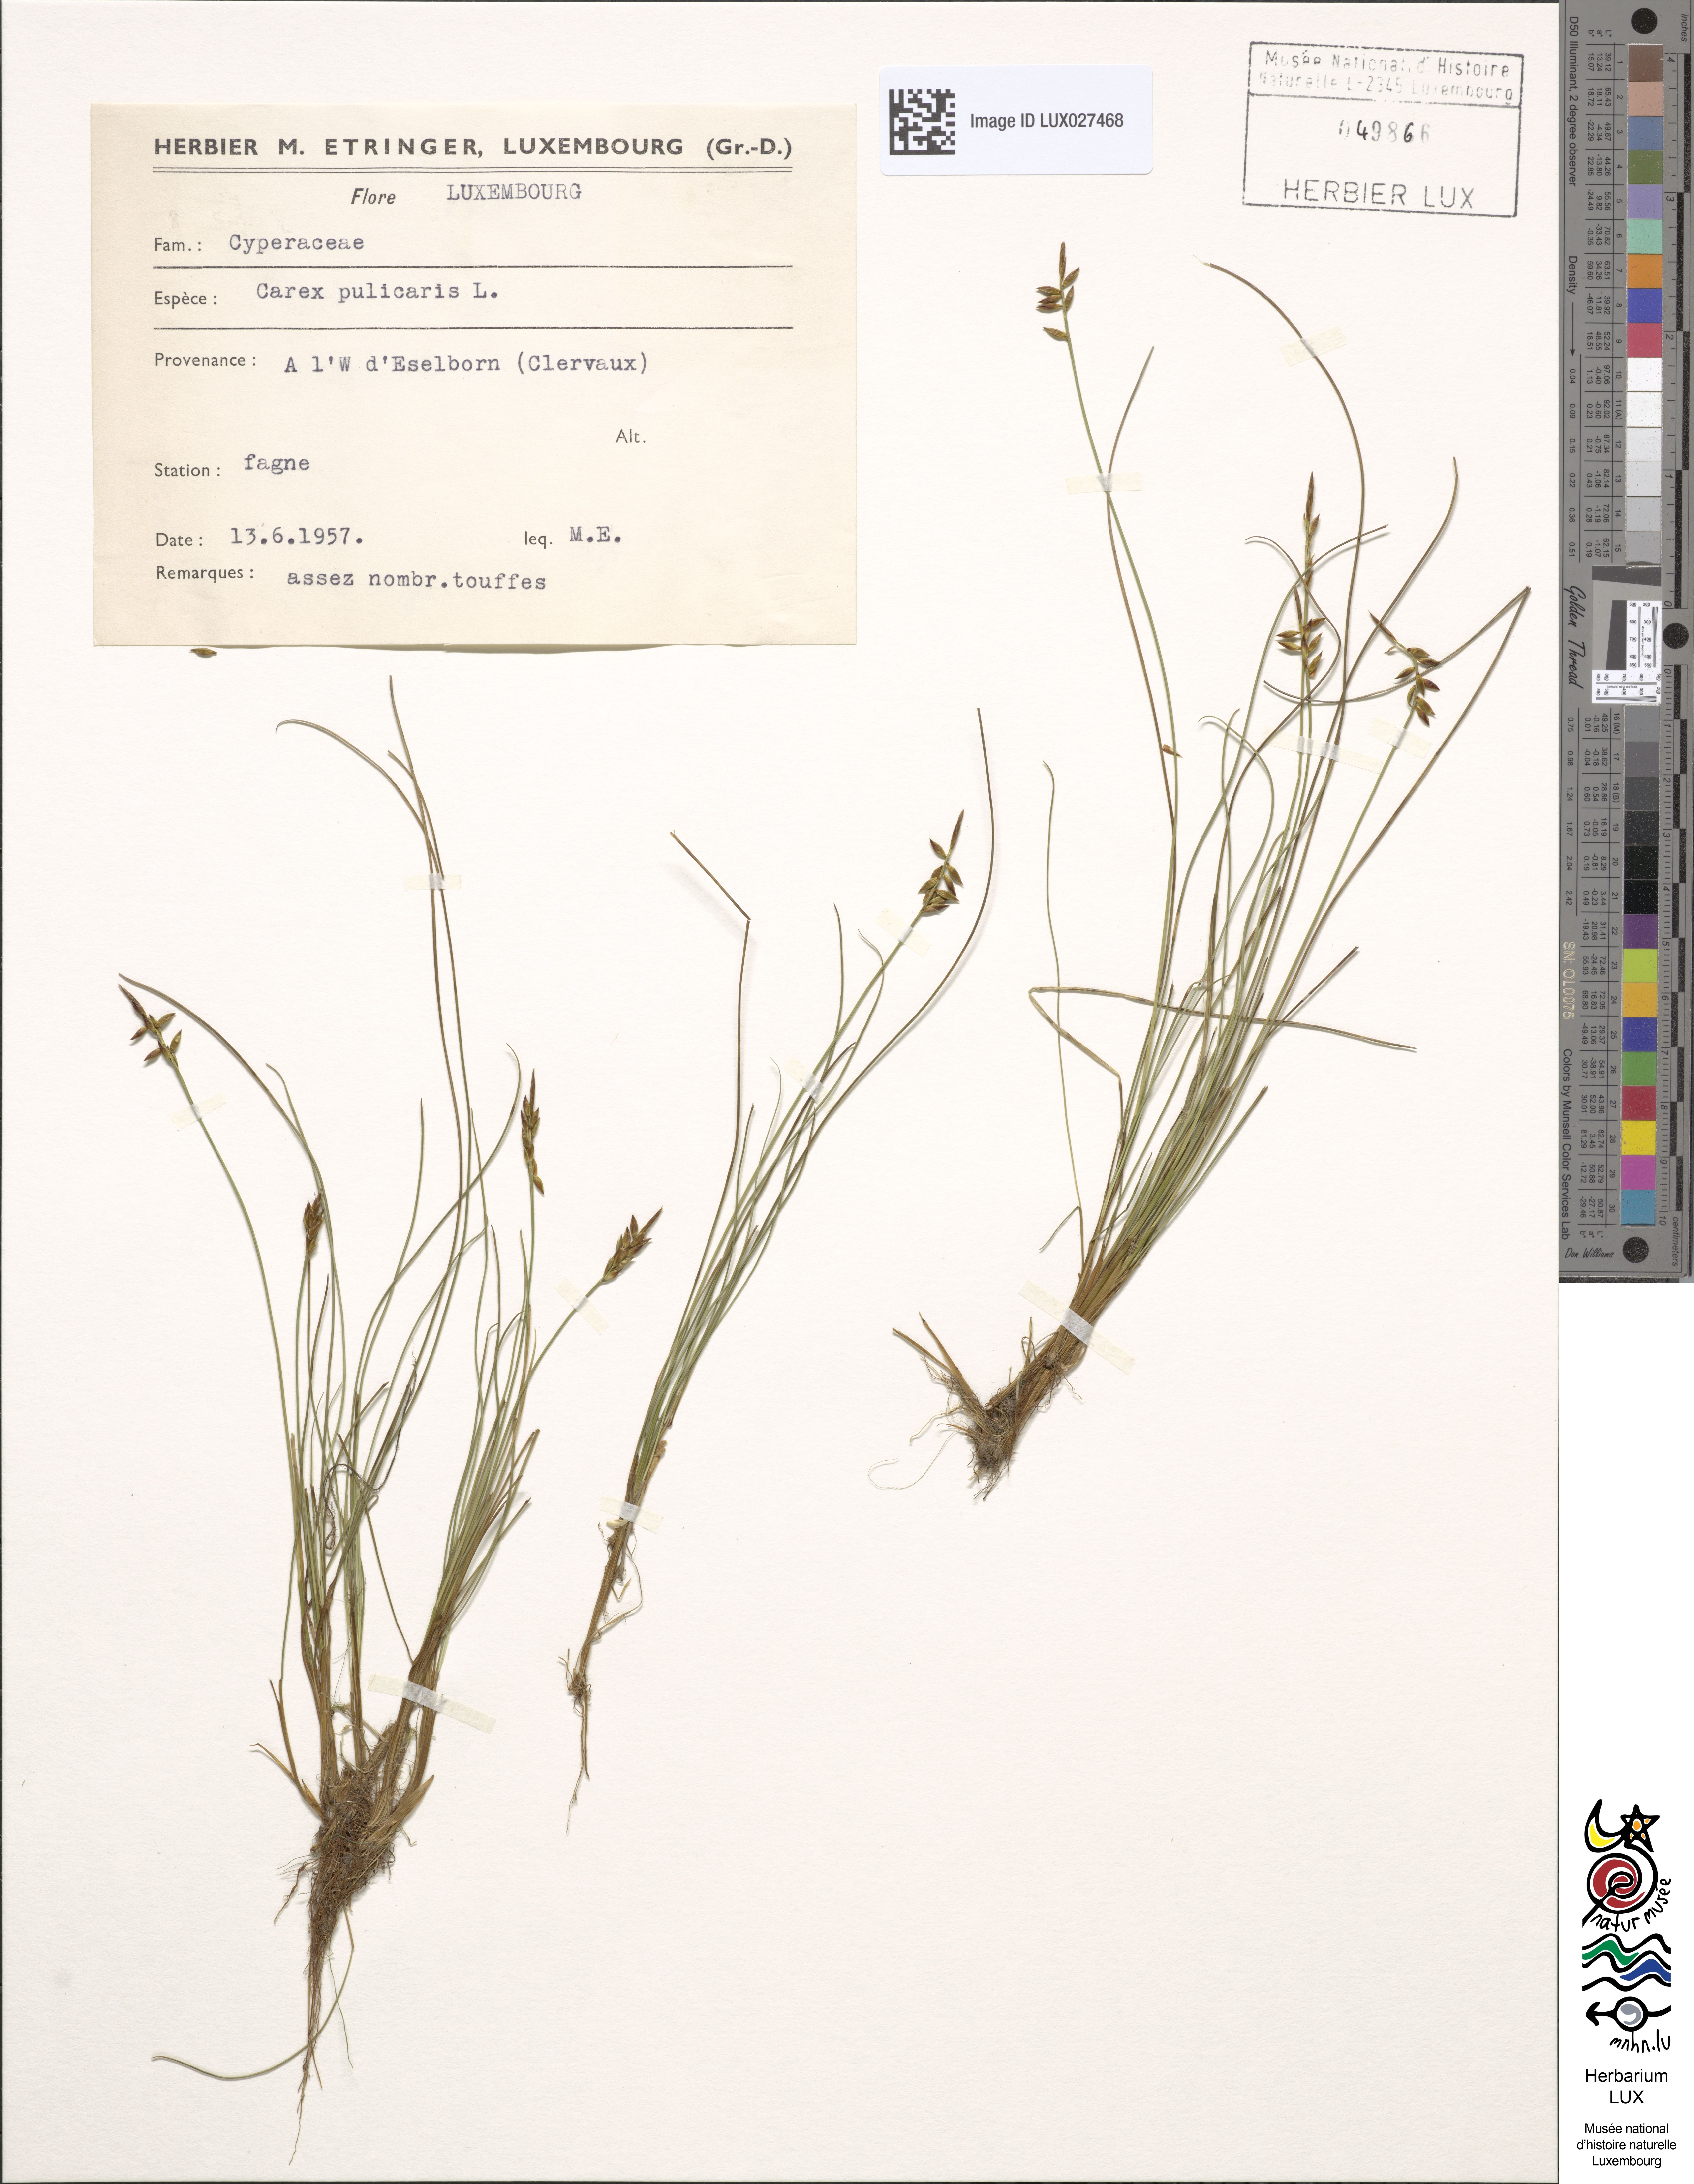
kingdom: Plantae
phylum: Tracheophyta
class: Liliopsida
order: Poales
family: Cyperaceae
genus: Carex
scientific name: Carex pulicaris
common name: Flea sedge
